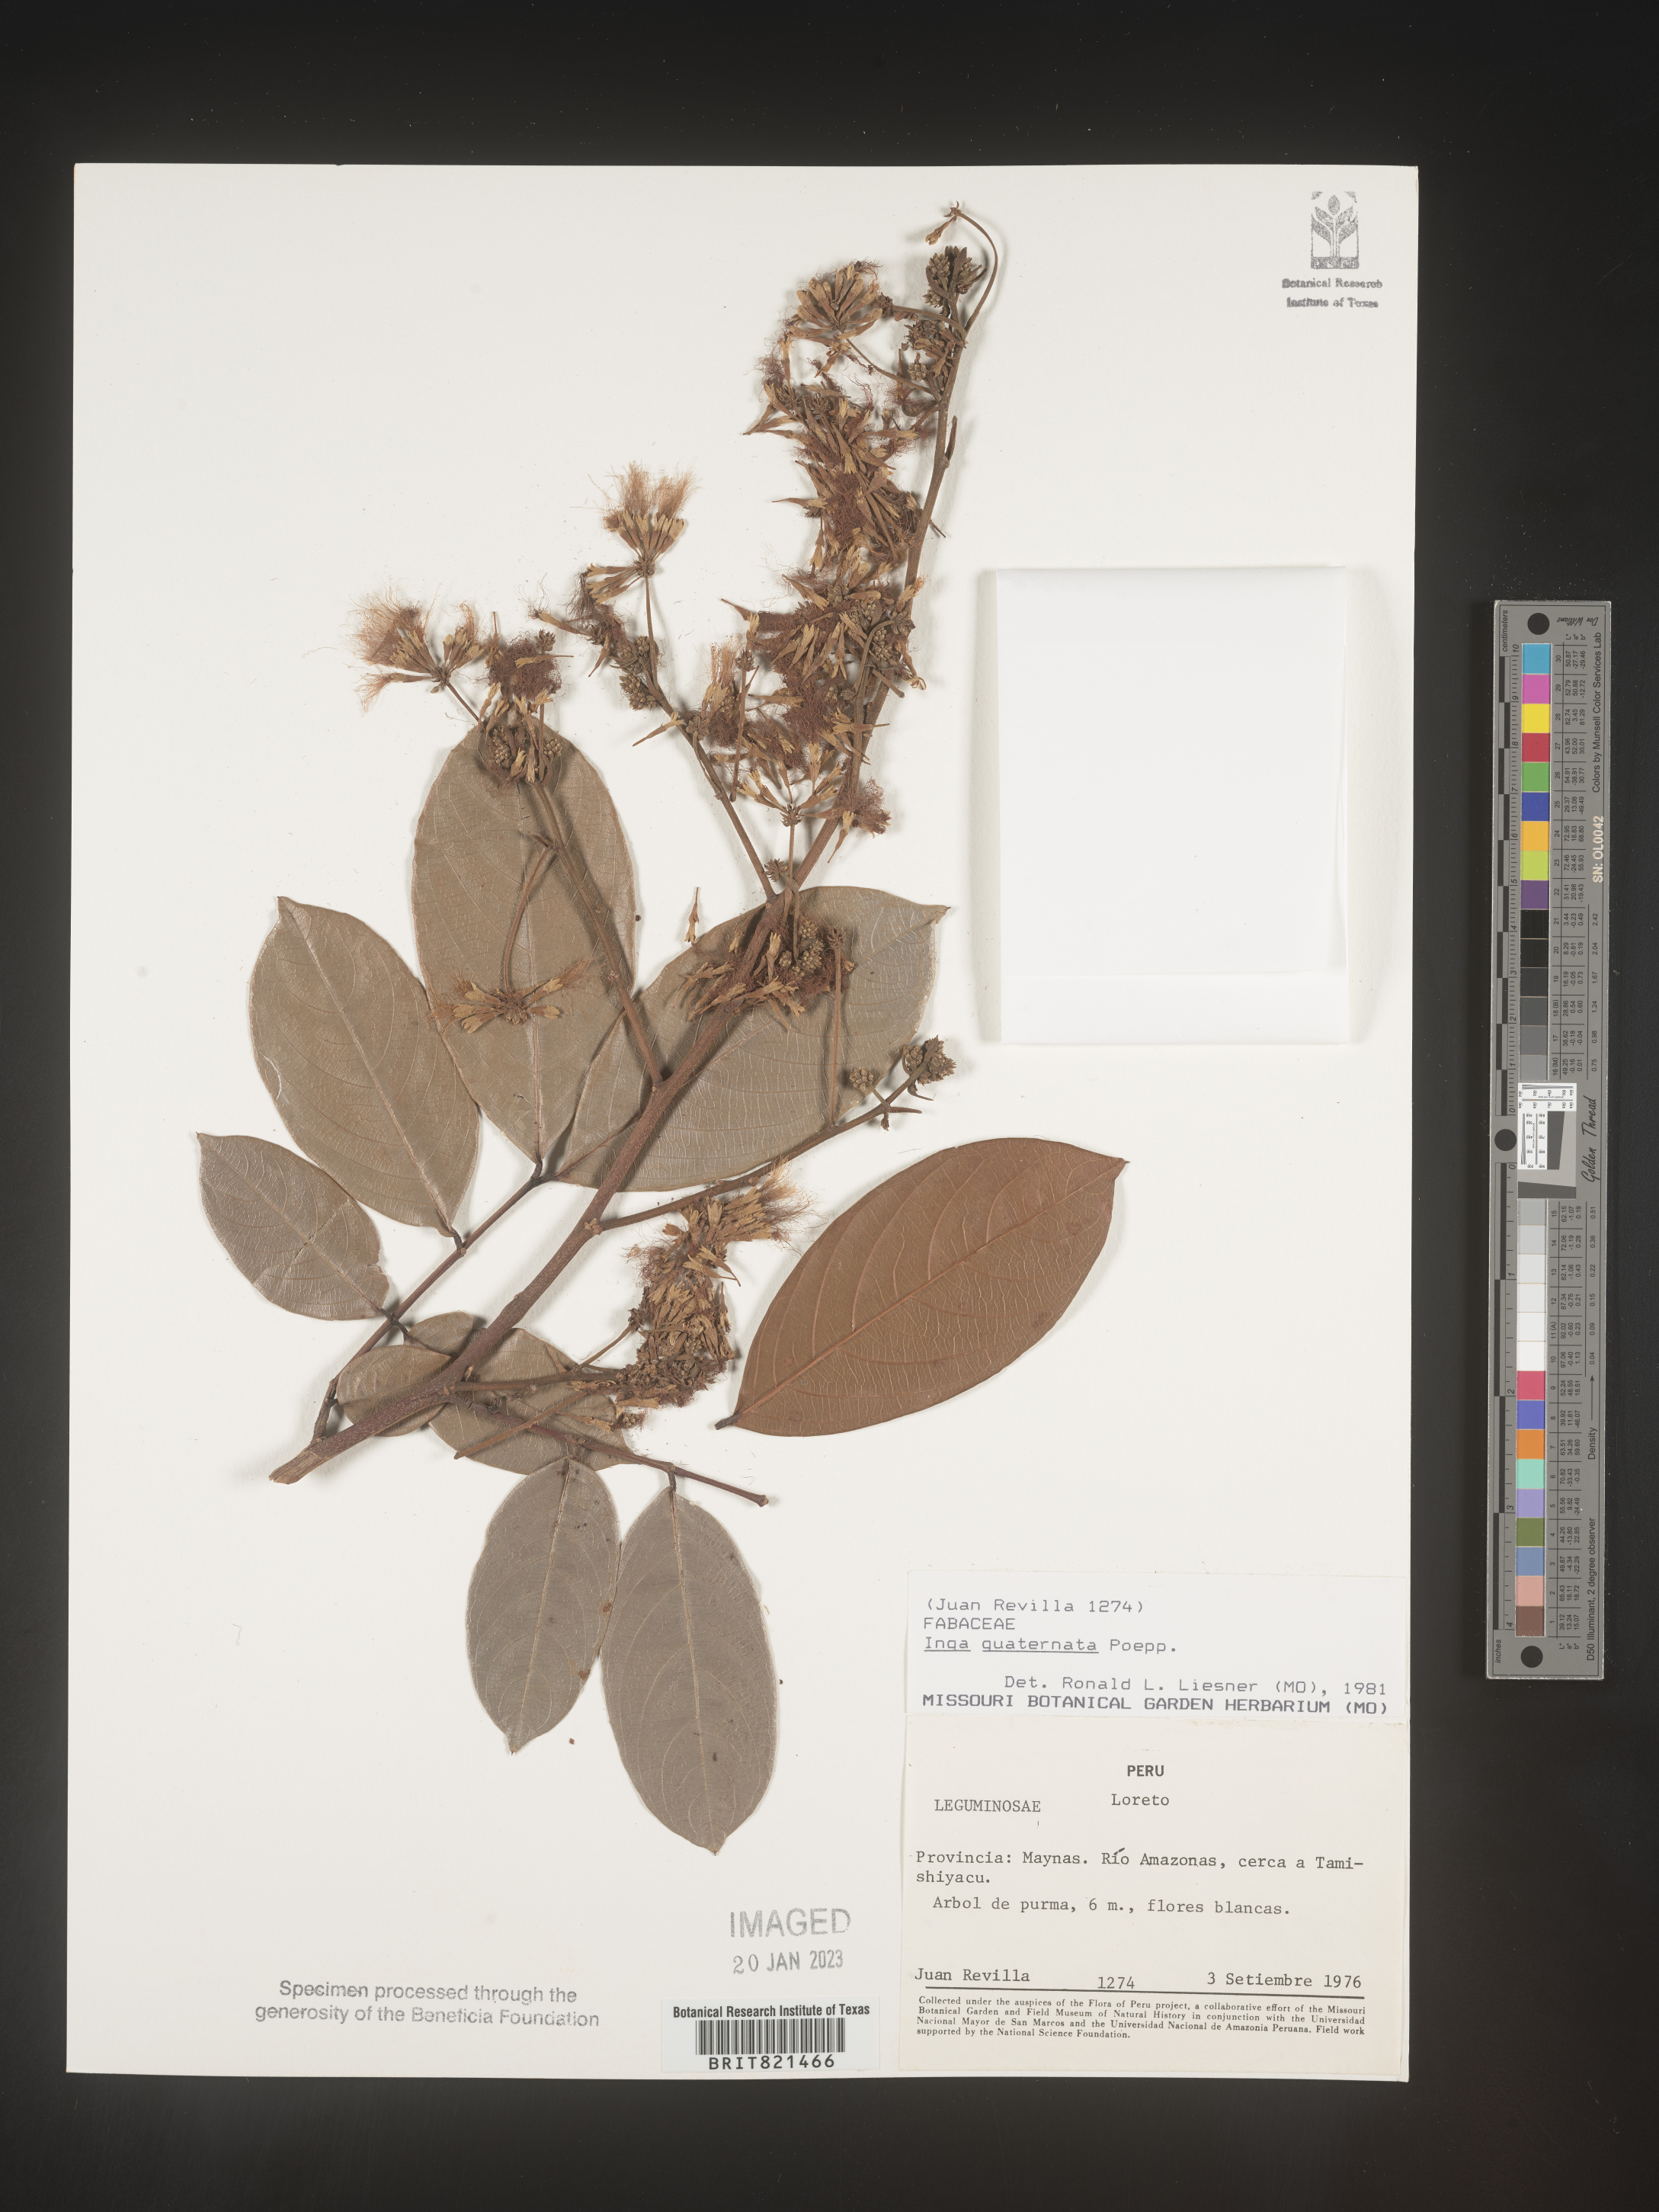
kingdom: Plantae
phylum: Tracheophyta
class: Magnoliopsida
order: Fabales
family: Fabaceae
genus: Inga
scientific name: Inga
